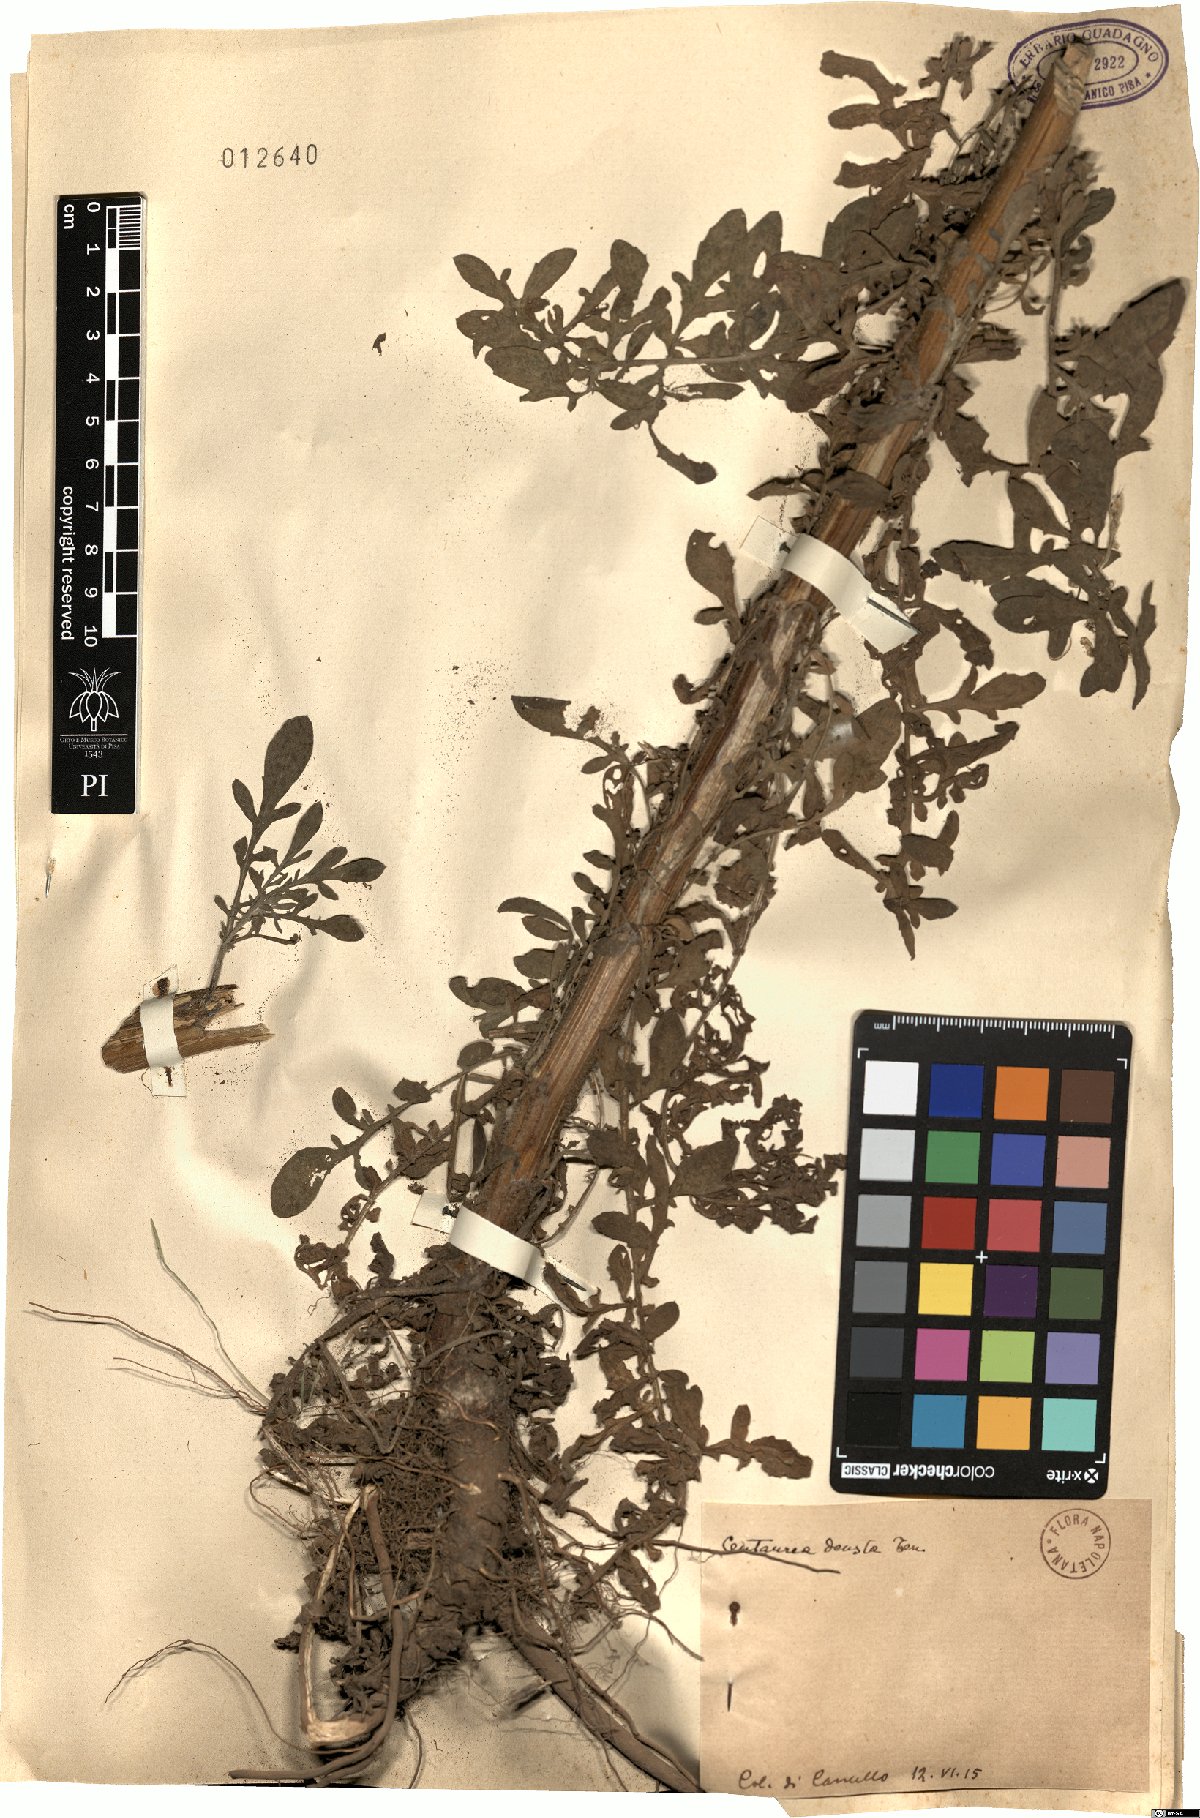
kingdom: Plantae
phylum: Tracheophyta
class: Magnoliopsida
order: Asterales
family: Asteraceae
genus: Centaurea
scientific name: Centaurea deusta
